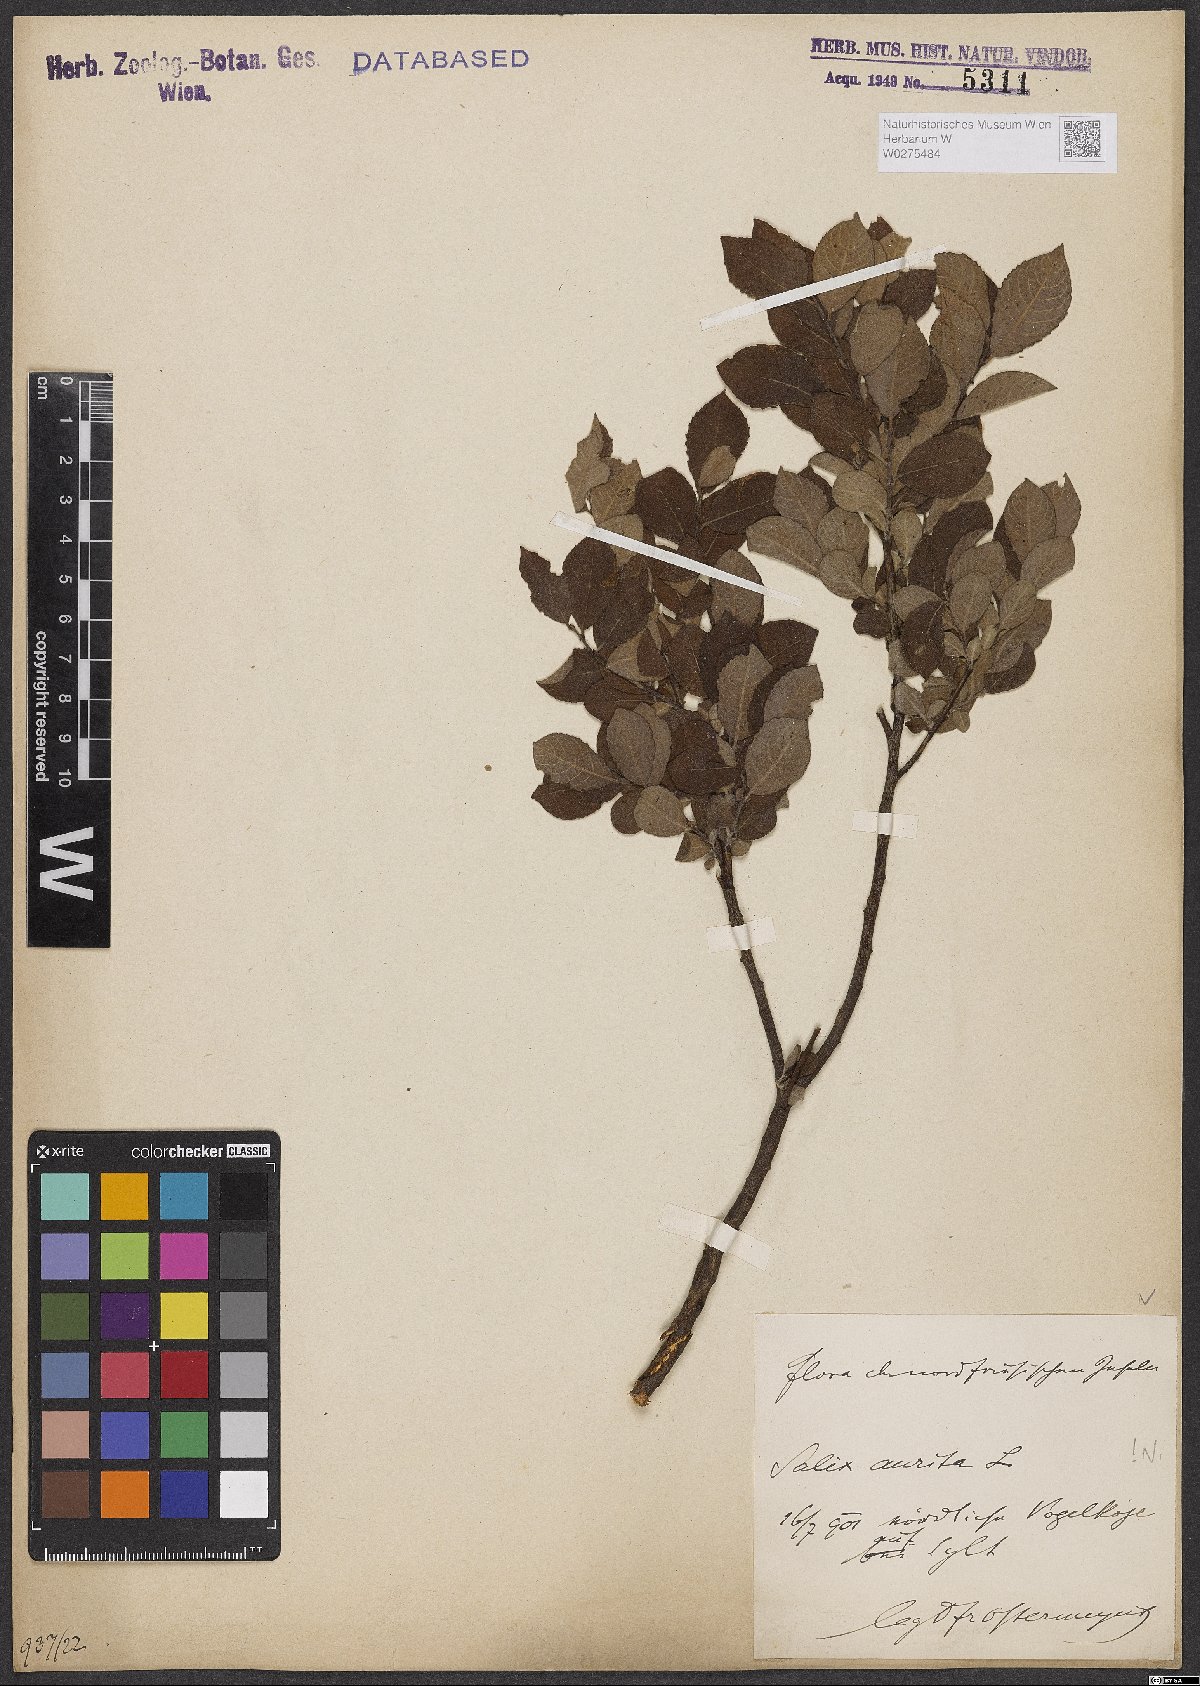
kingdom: Plantae
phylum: Tracheophyta
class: Magnoliopsida
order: Malpighiales
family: Salicaceae
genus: Salix
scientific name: Salix aurita
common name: Eared willow
